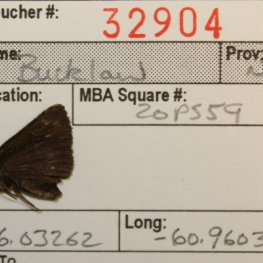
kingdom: Animalia
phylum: Arthropoda
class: Insecta
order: Lepidoptera
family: Hesperiidae
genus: Euphyes
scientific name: Euphyes vestris
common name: Dun Skipper
